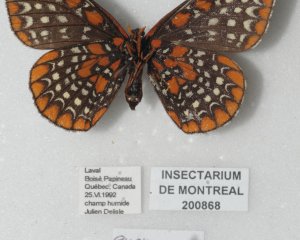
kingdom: Animalia
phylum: Arthropoda
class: Insecta
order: Lepidoptera
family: Nymphalidae
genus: Euphydryas
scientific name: Euphydryas phaeton
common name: Baltimore Checkerspot
